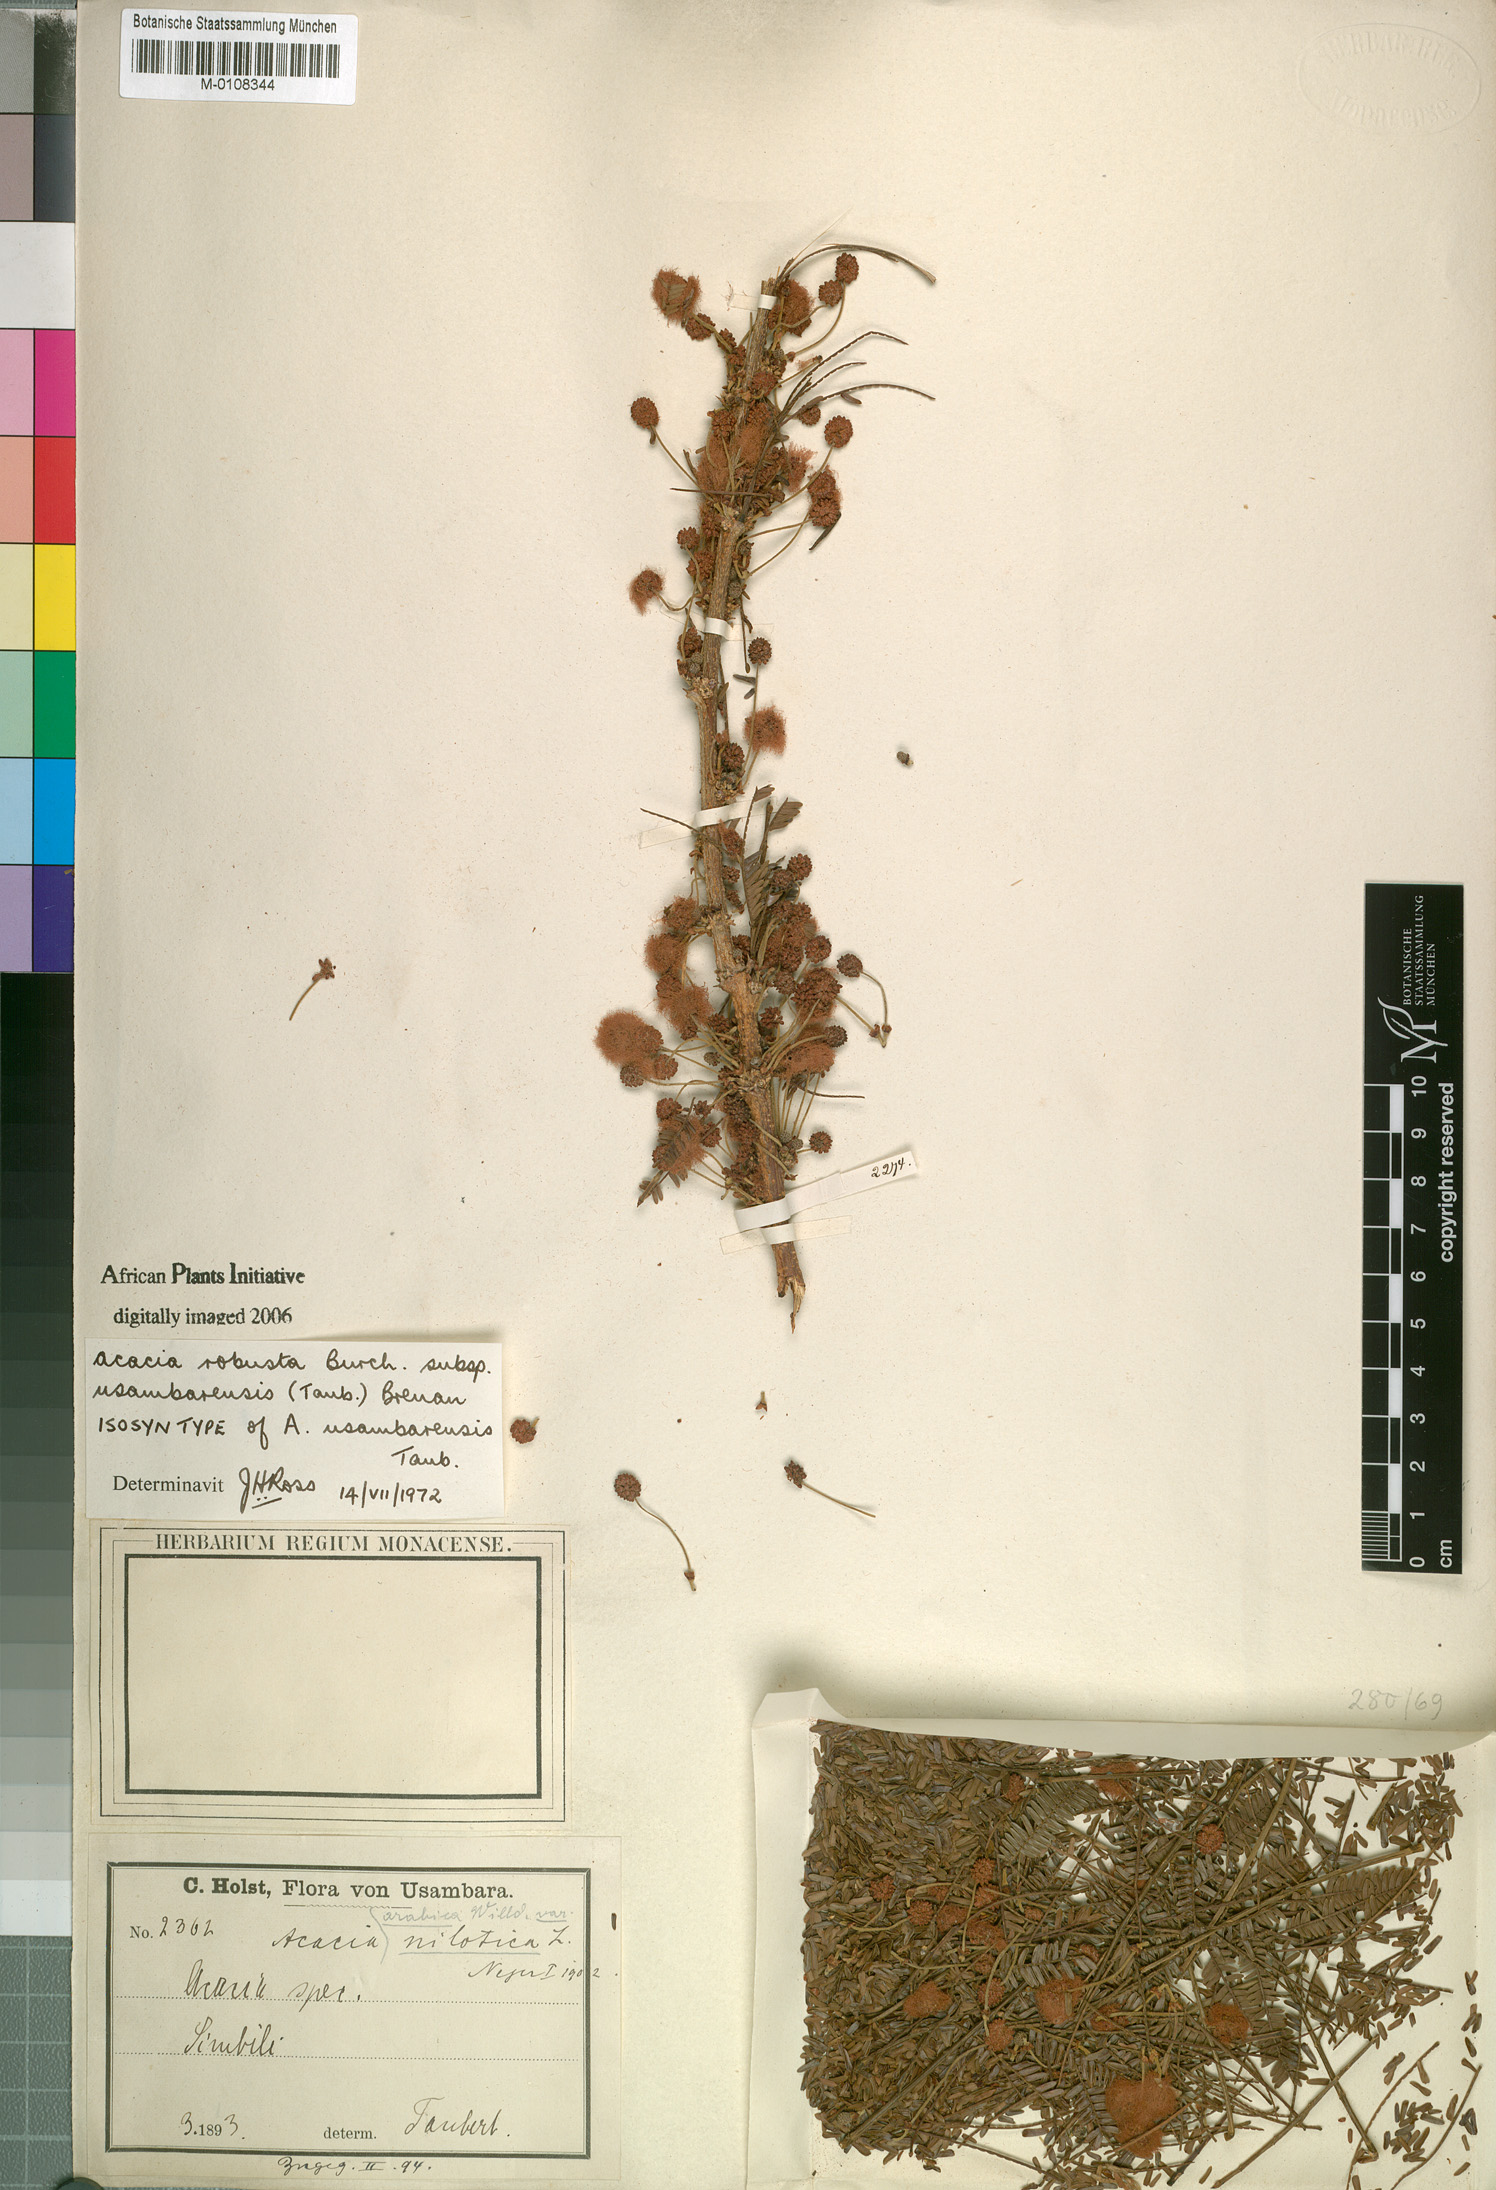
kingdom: Plantae
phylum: Tracheophyta
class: Magnoliopsida
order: Fabales
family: Fabaceae
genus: Vachellia
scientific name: Vachellia robusta
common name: Ankle thorn
